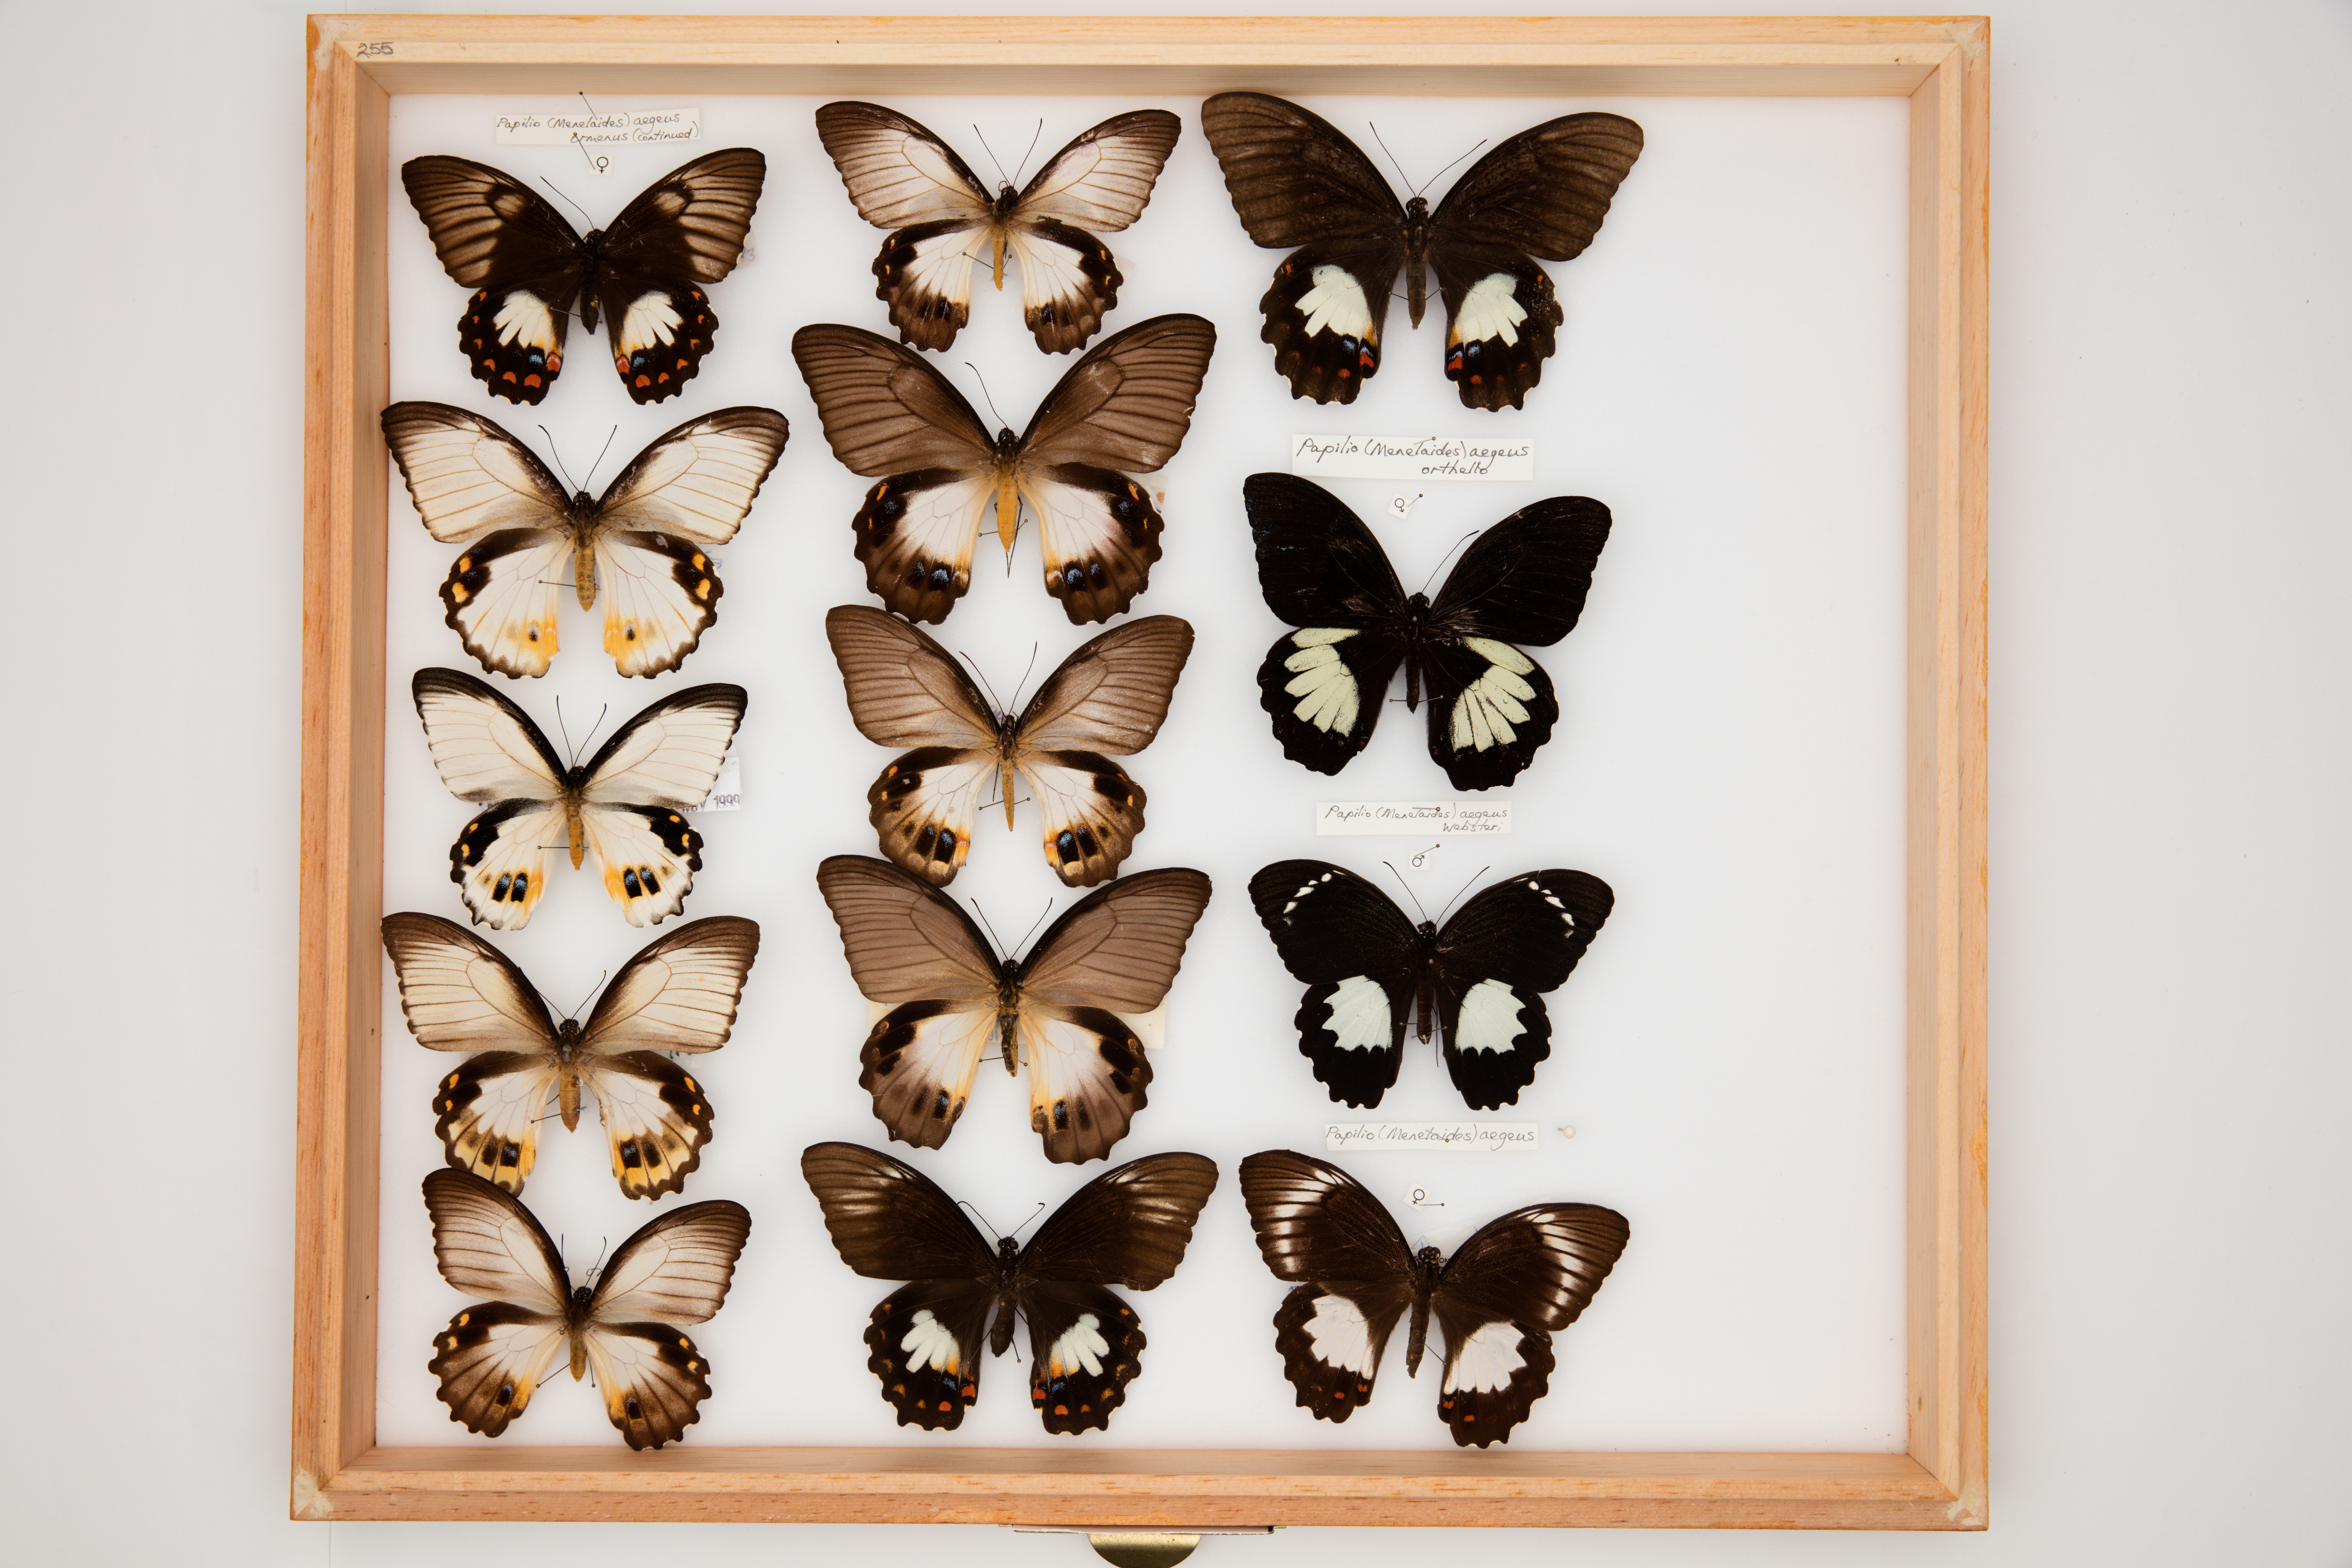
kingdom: Animalia
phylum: Arthropoda
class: Insecta
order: Lepidoptera
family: Papilionidae
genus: Papilio
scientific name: Papilio aegeus
